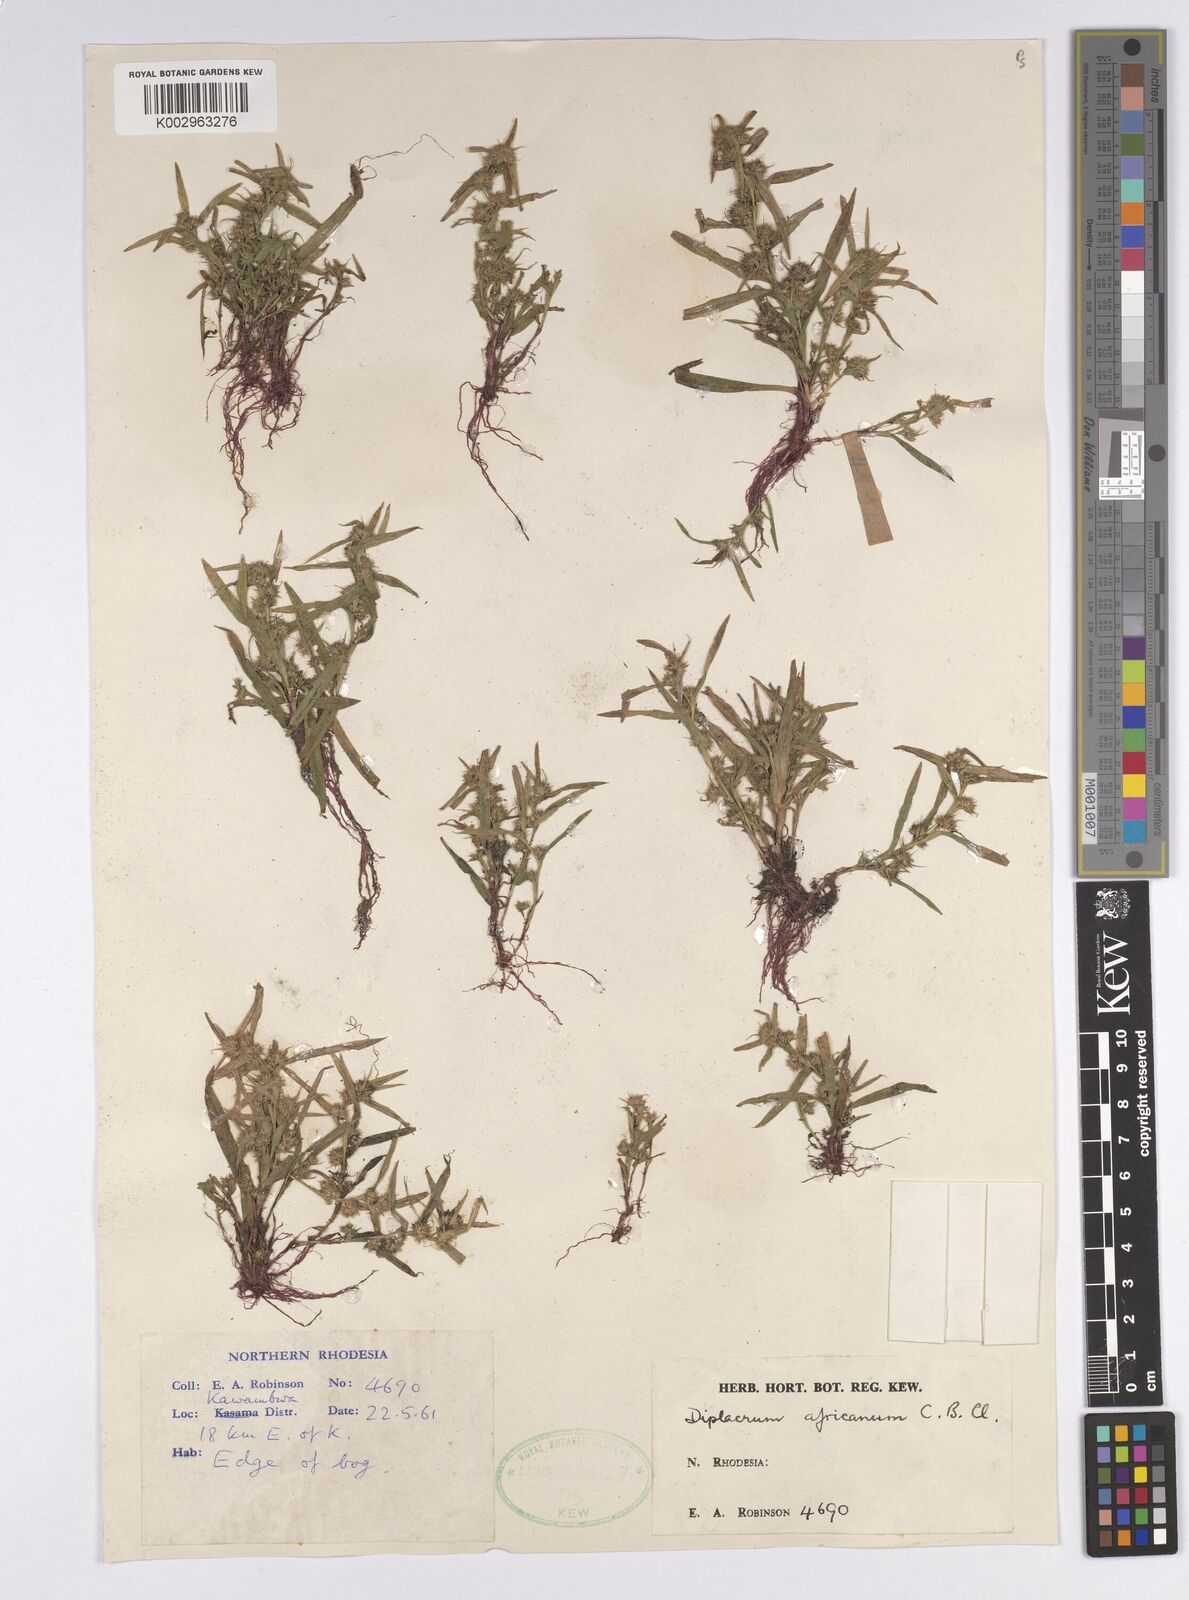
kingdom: Plantae
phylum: Tracheophyta
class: Liliopsida
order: Poales
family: Cyperaceae
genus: Diplacrum
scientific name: Diplacrum africanum
